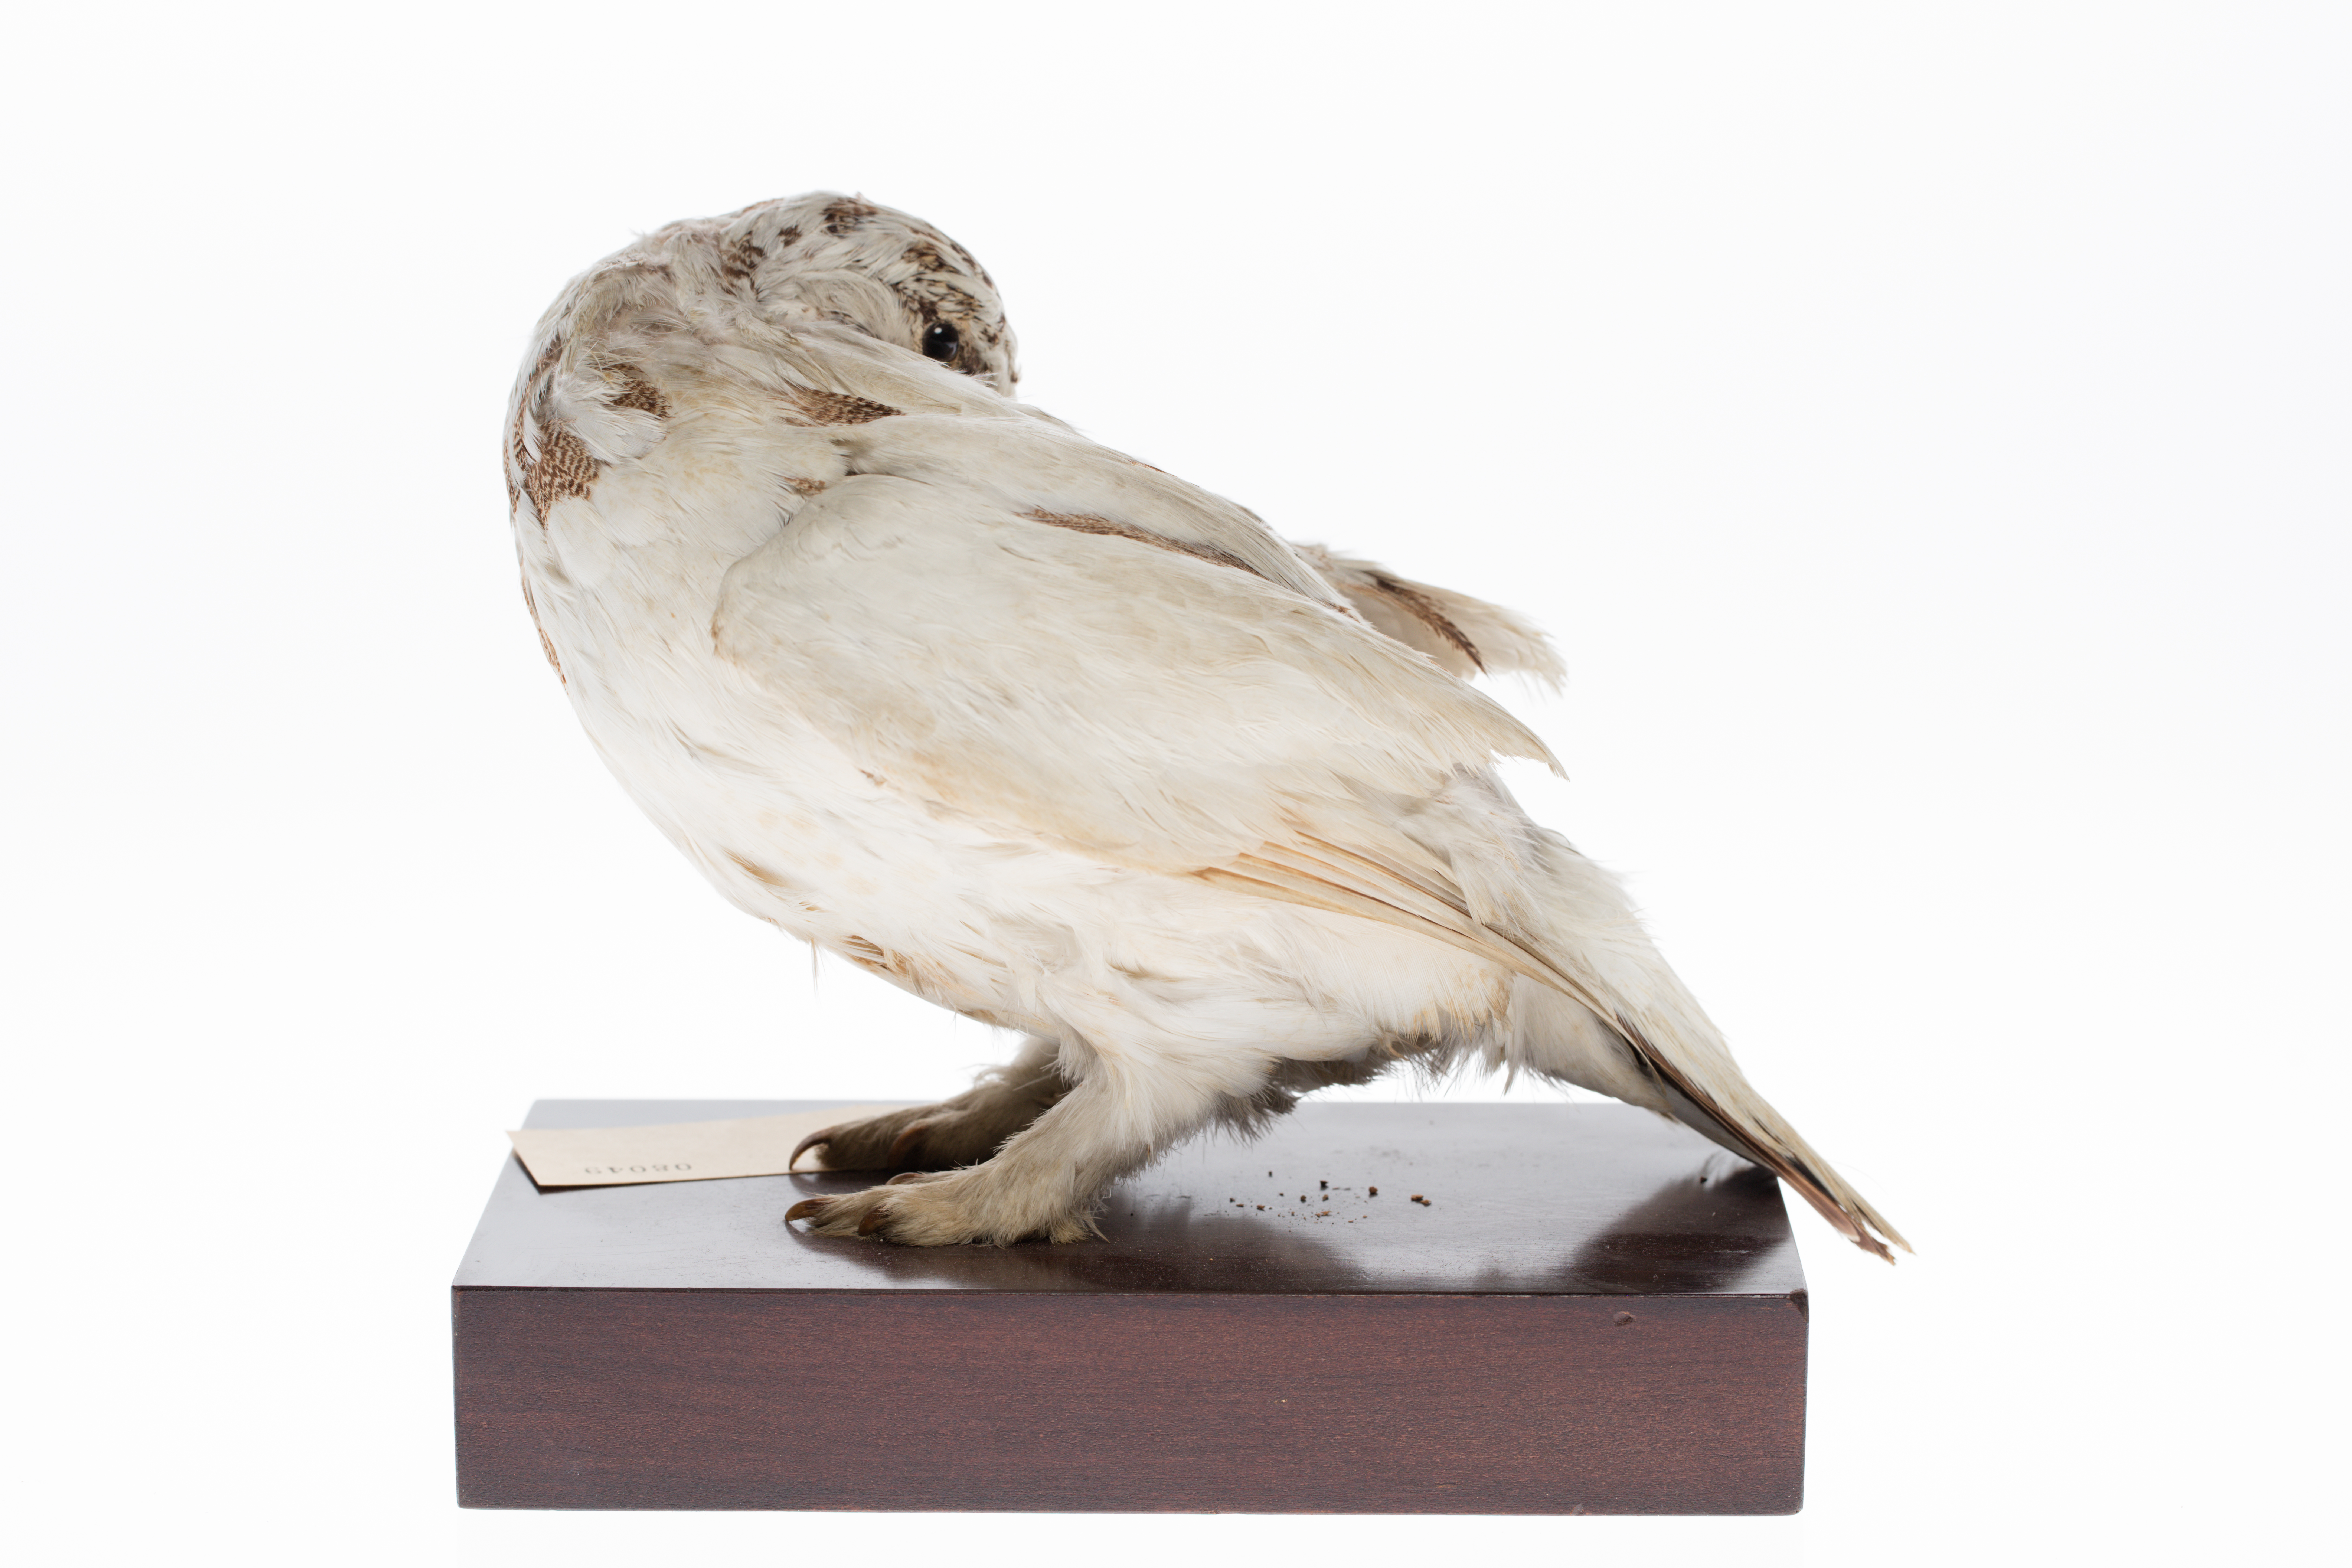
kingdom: Animalia
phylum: Chordata
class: Aves
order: Galliformes
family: Phasianidae
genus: Lagopus
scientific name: Lagopus muta
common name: Rock ptarmigan
